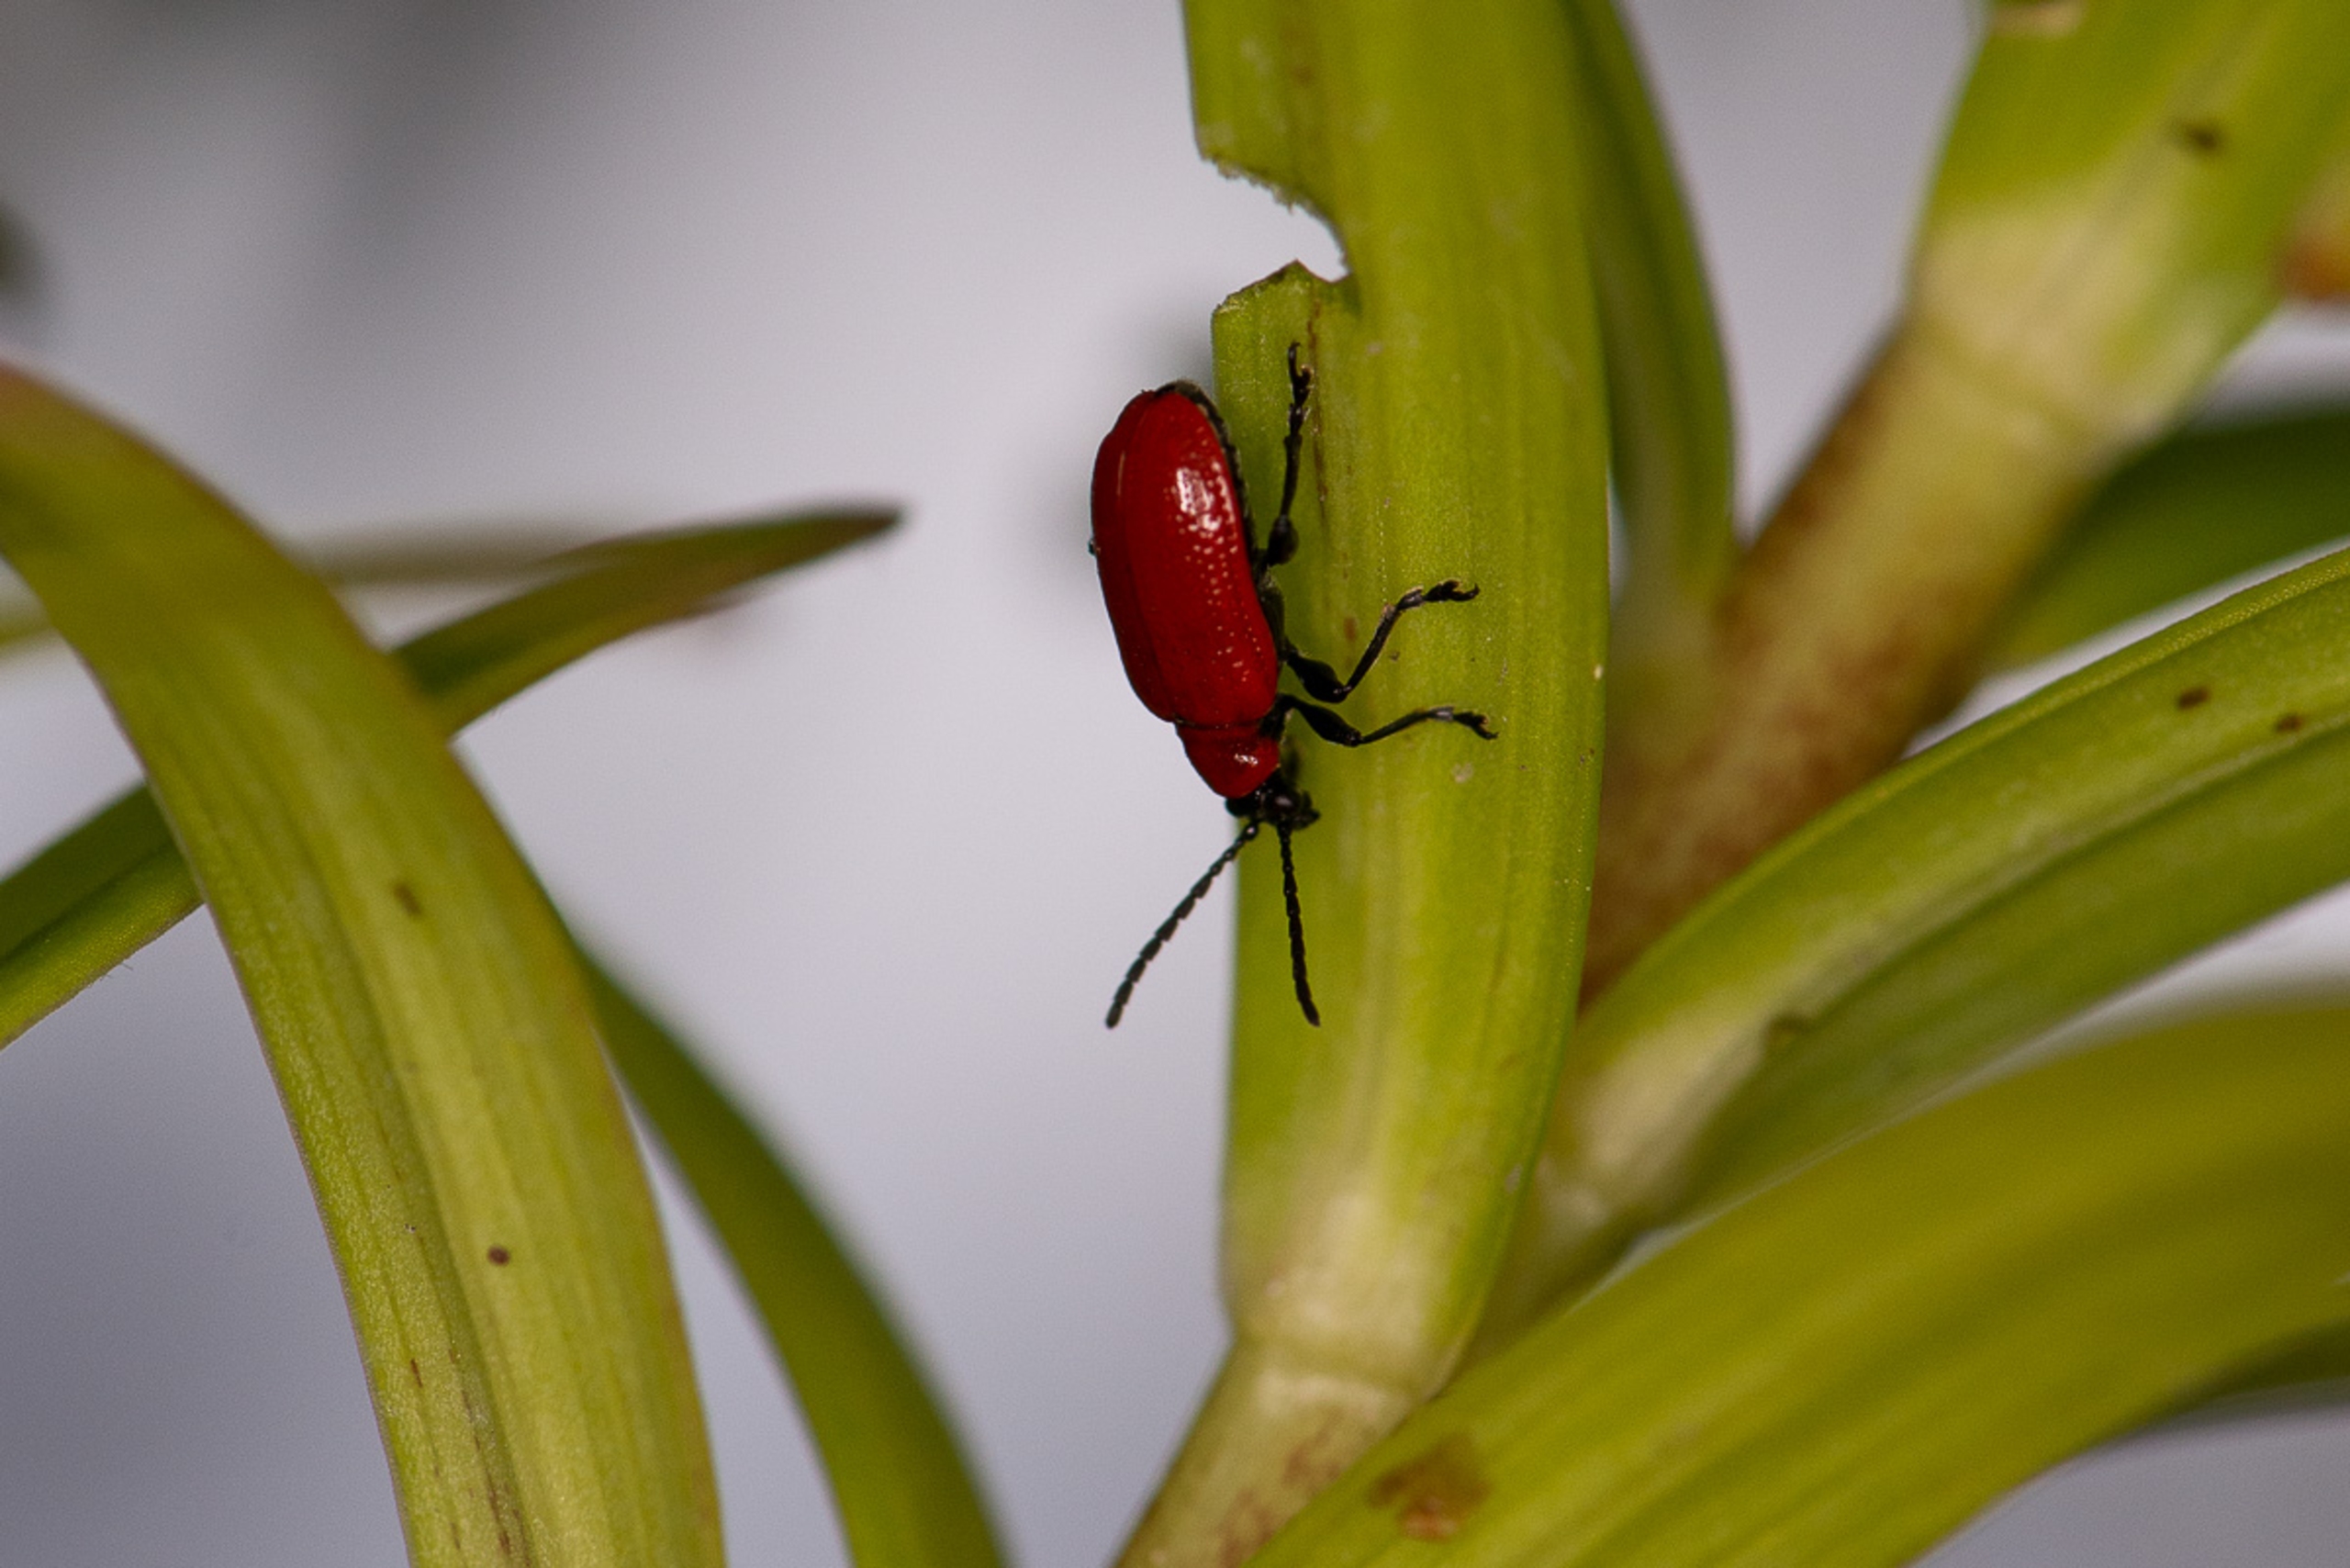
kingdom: Animalia
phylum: Arthropoda
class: Insecta
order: Coleoptera
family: Chrysomelidae
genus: Lilioceris
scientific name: Lilioceris lilii
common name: Liljebille
